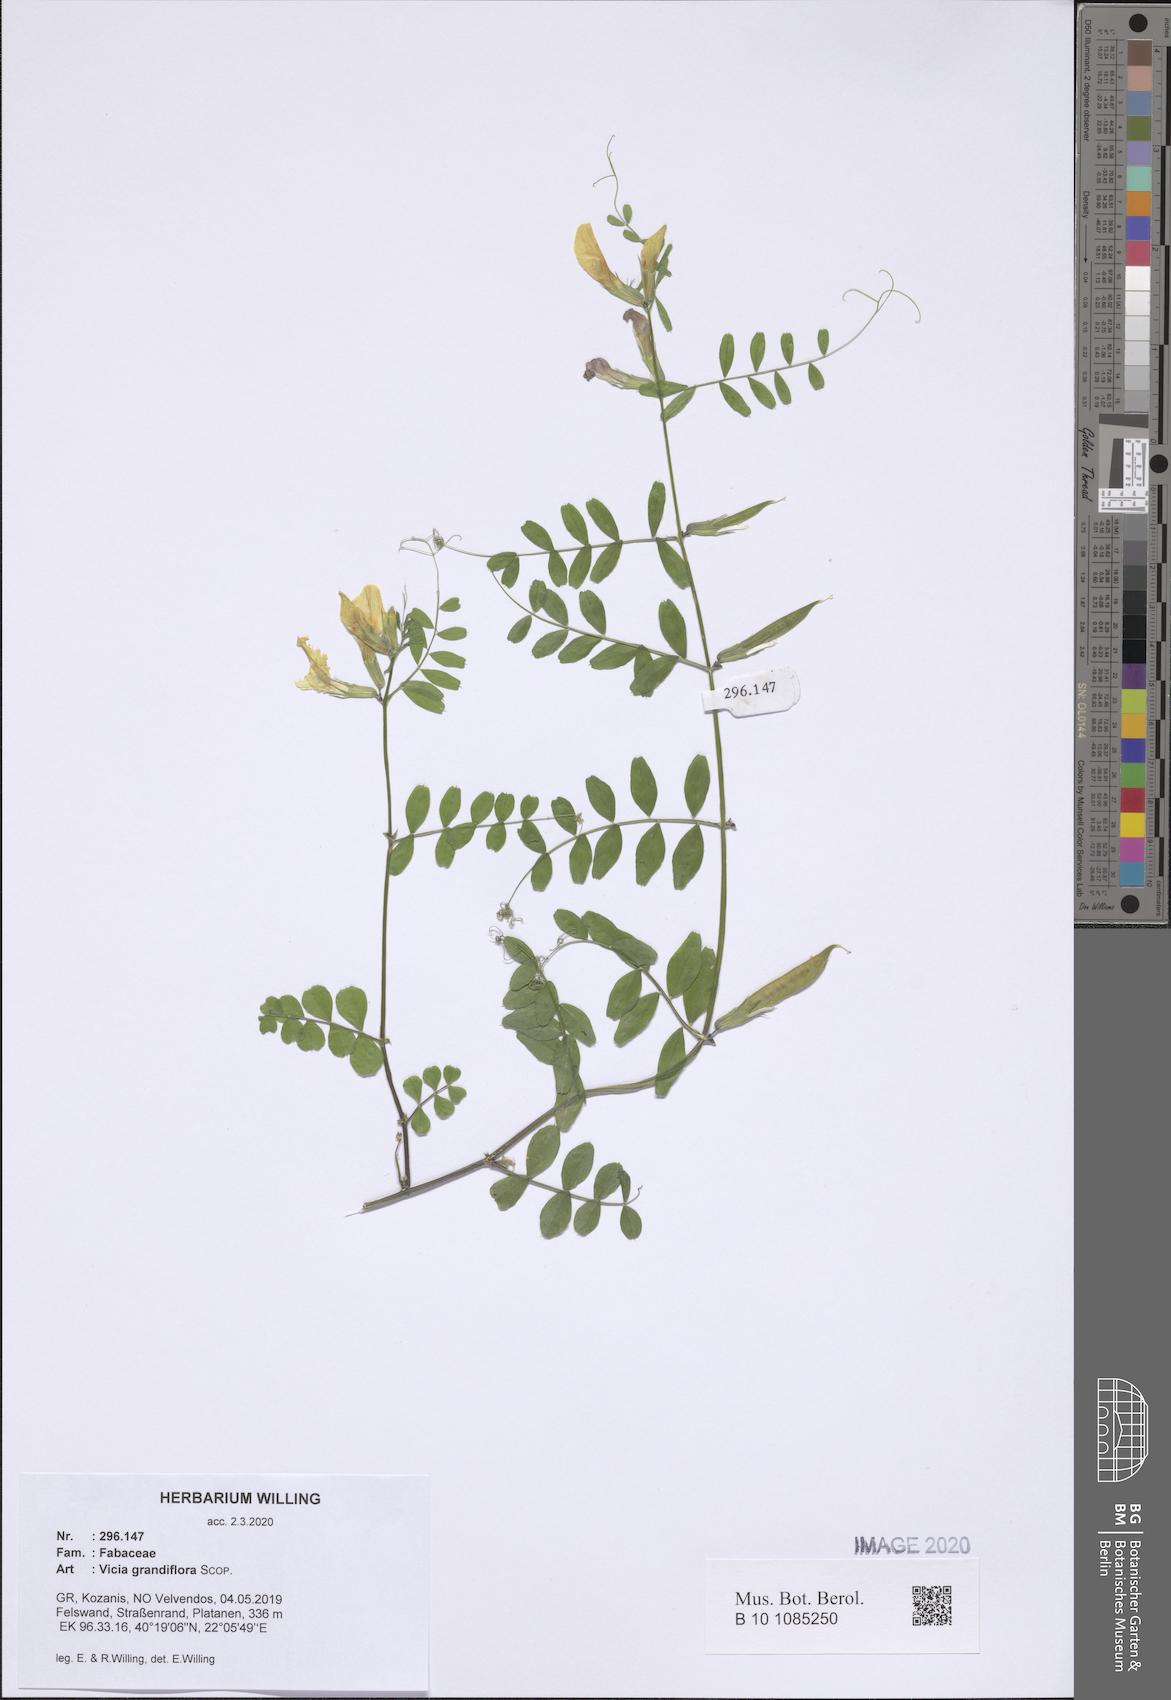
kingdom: Plantae
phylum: Tracheophyta
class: Magnoliopsida
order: Fabales
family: Fabaceae
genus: Vicia
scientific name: Vicia grandiflora
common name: Large yellow vetch
